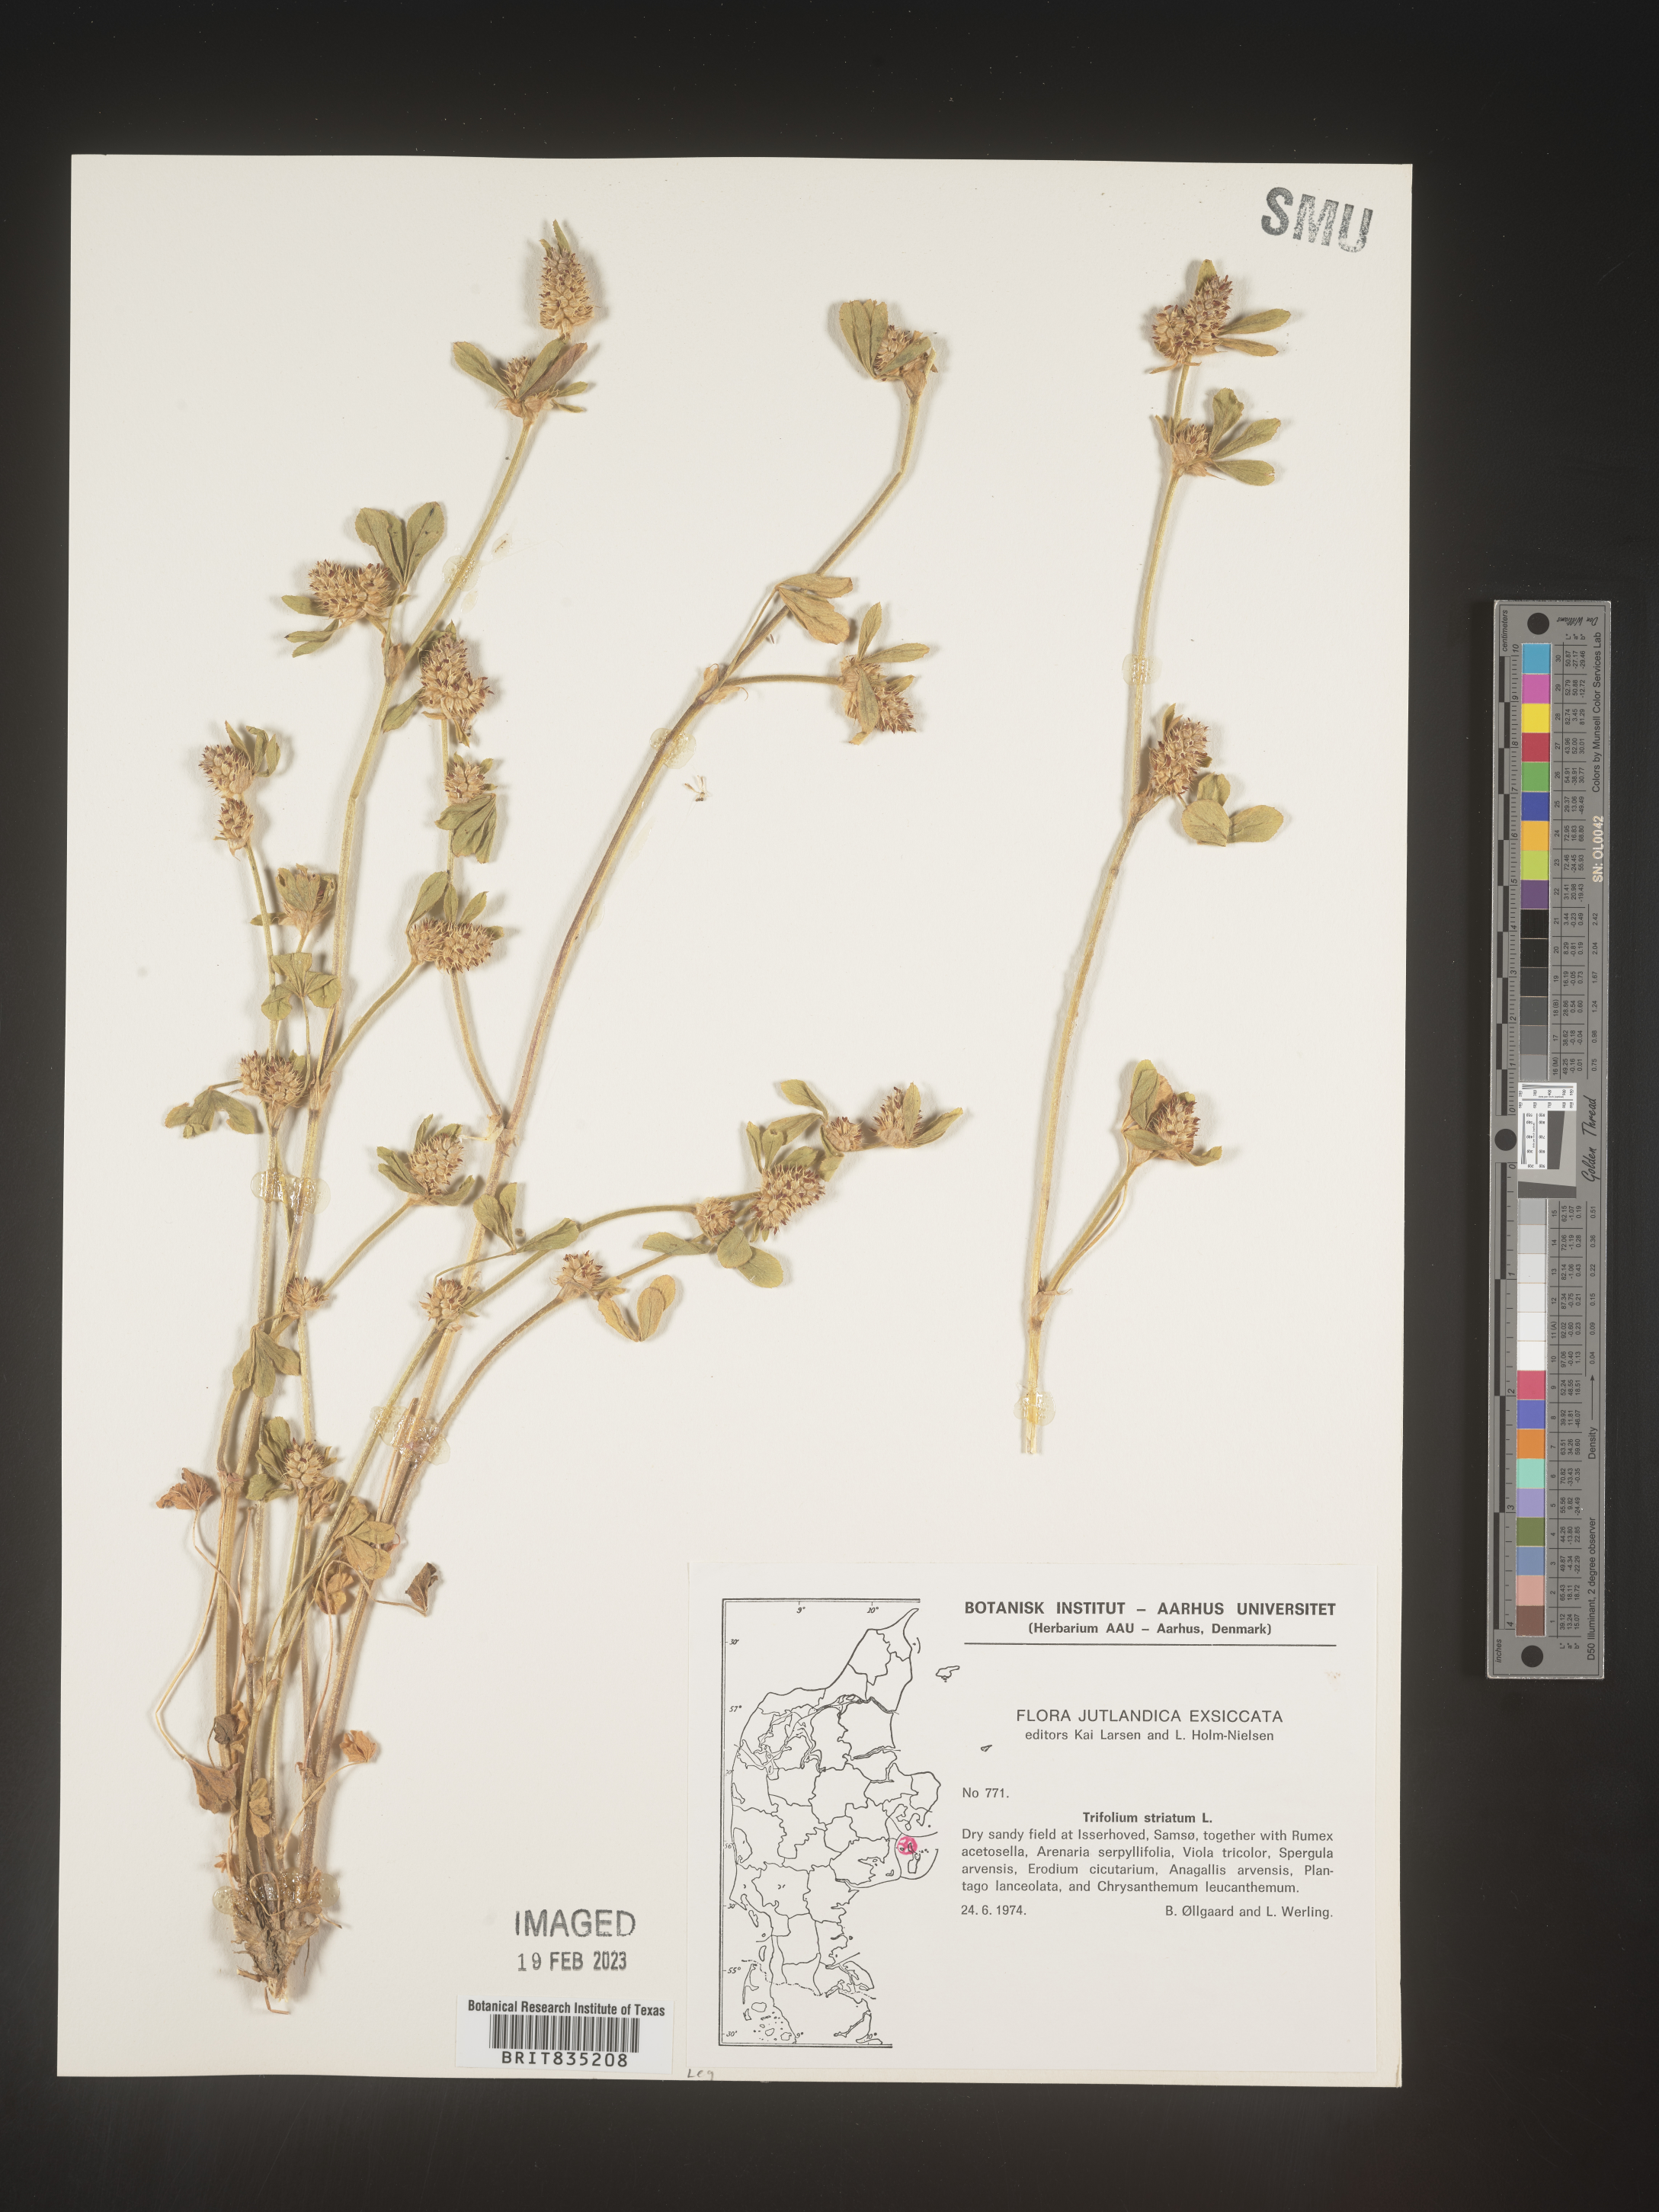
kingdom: Plantae
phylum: Tracheophyta
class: Magnoliopsida
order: Fabales
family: Fabaceae
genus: Trifolium
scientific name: Trifolium
